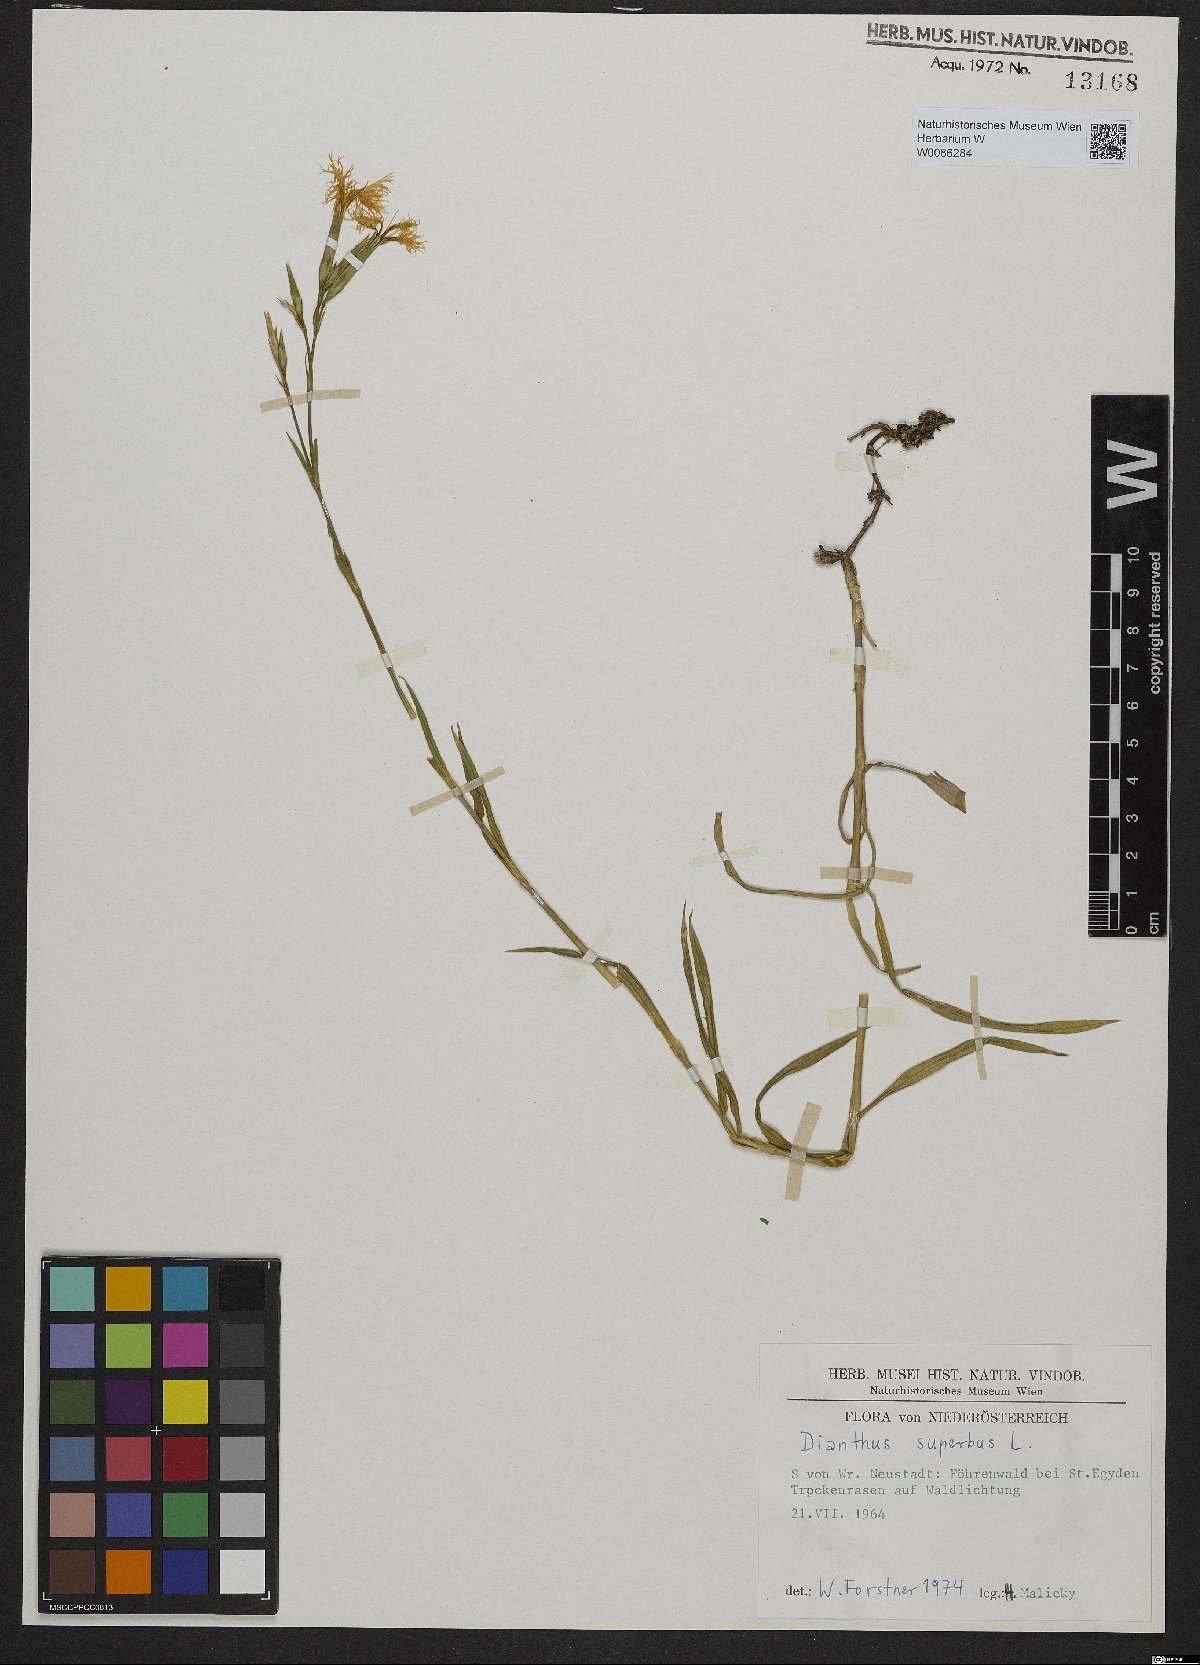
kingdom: Plantae
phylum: Tracheophyta
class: Magnoliopsida
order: Caryophyllales
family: Caryophyllaceae
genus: Dianthus
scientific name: Dianthus superbus
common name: Fringed pink
